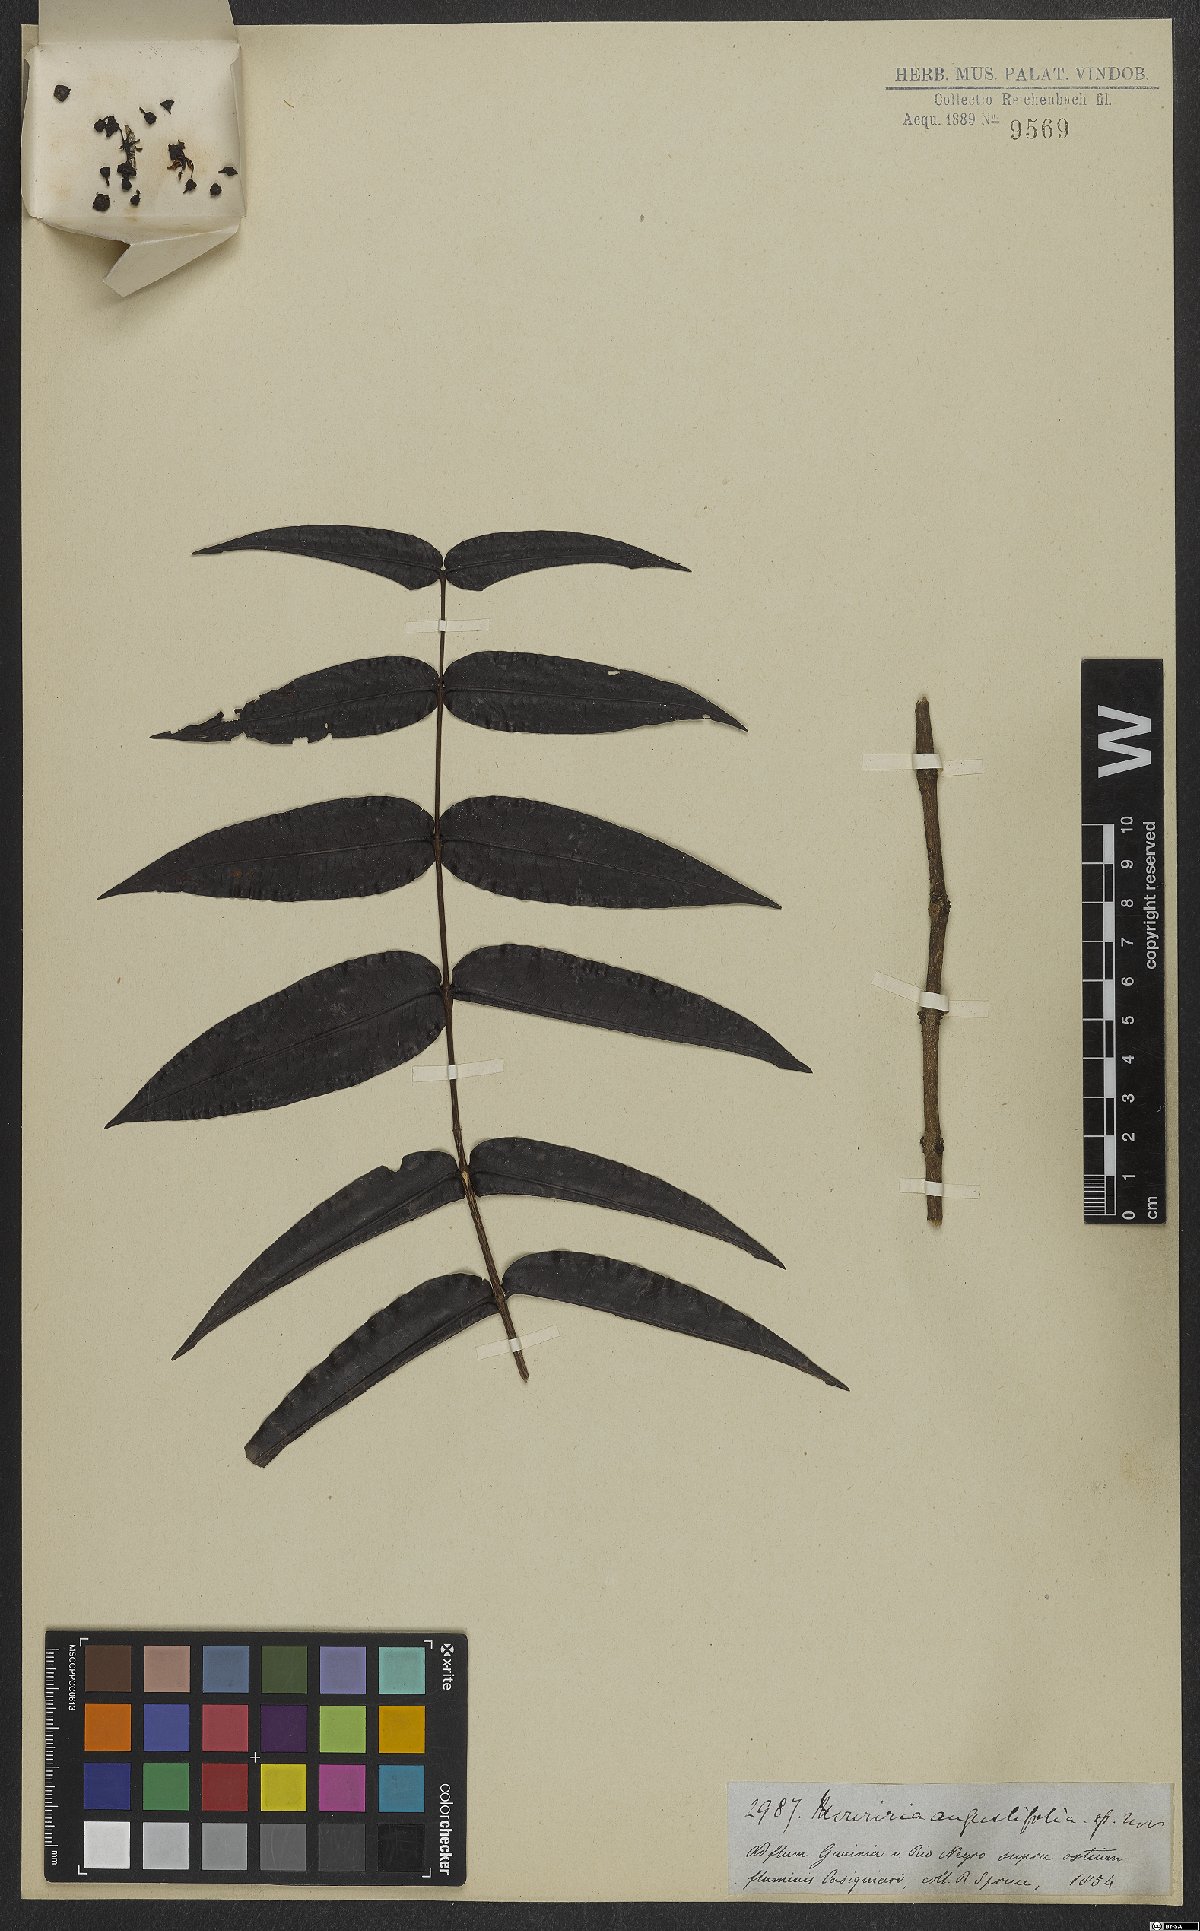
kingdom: Plantae
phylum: Tracheophyta
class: Magnoliopsida
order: Myrtales
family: Melastomataceae
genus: Mouriri
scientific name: Mouriri angustifolia
